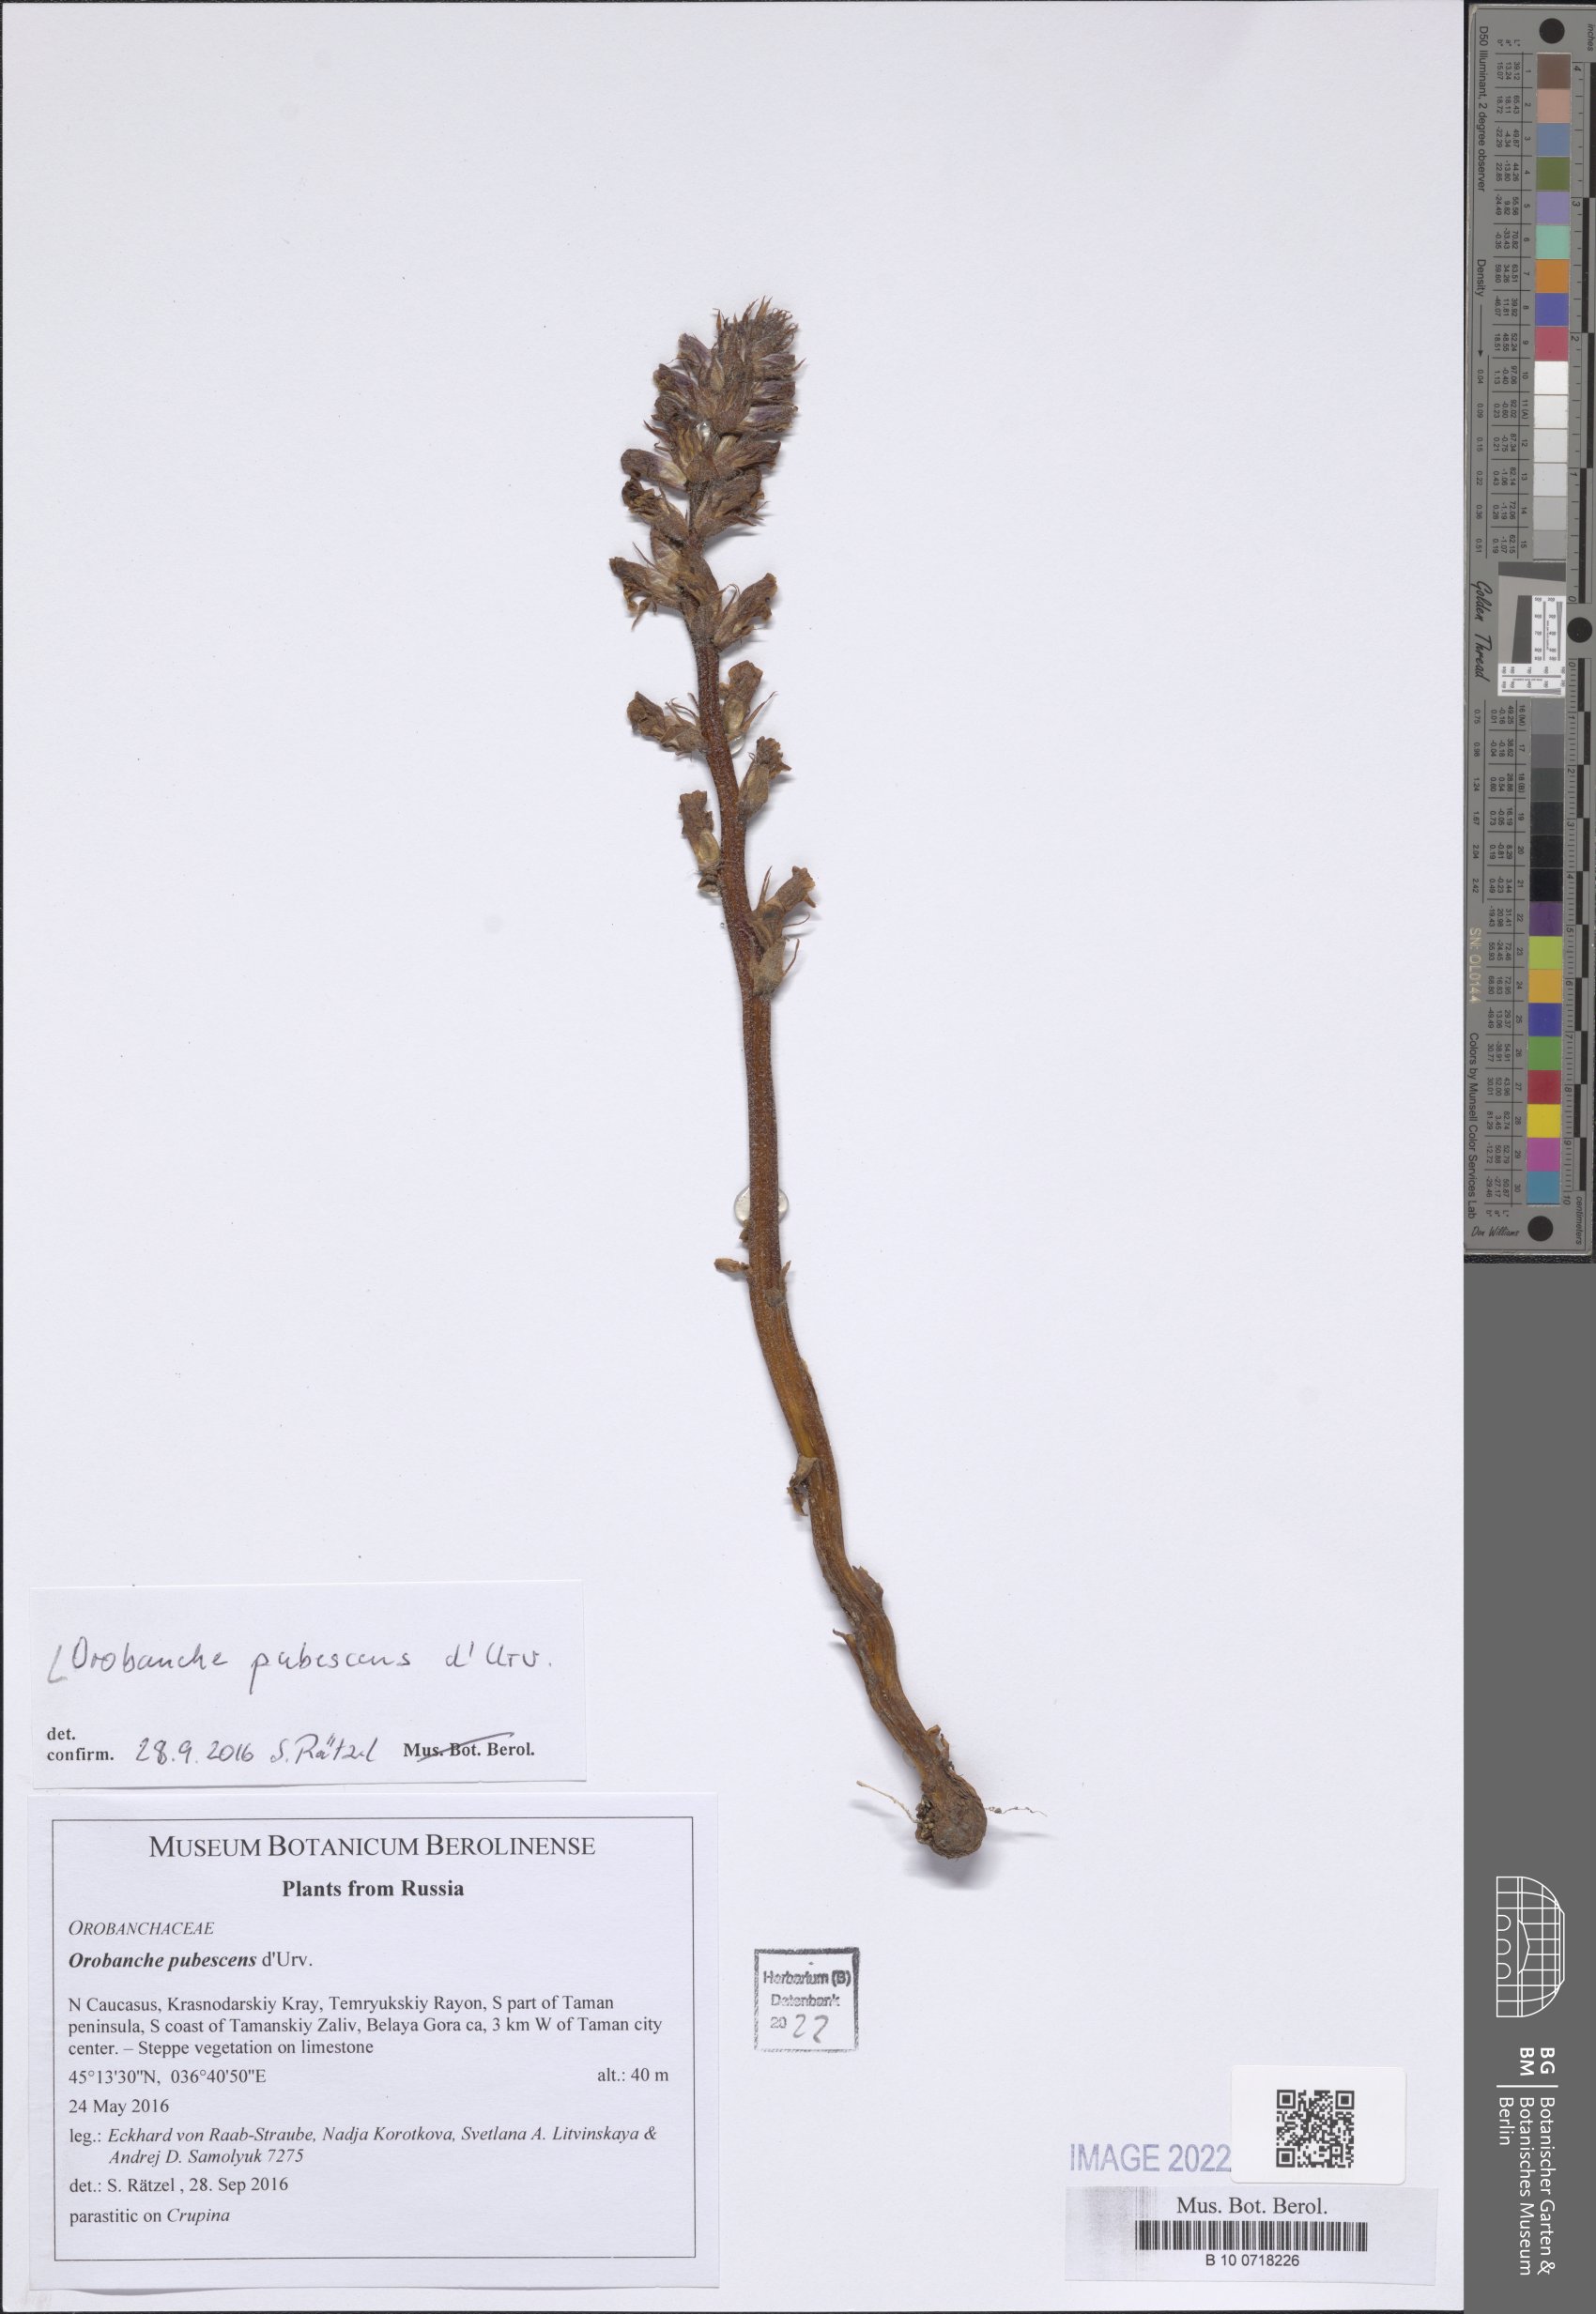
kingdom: Plantae
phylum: Tracheophyta
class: Magnoliopsida
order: Lamiales
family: Orobanchaceae
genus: Orobanche
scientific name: Orobanche pubescens
